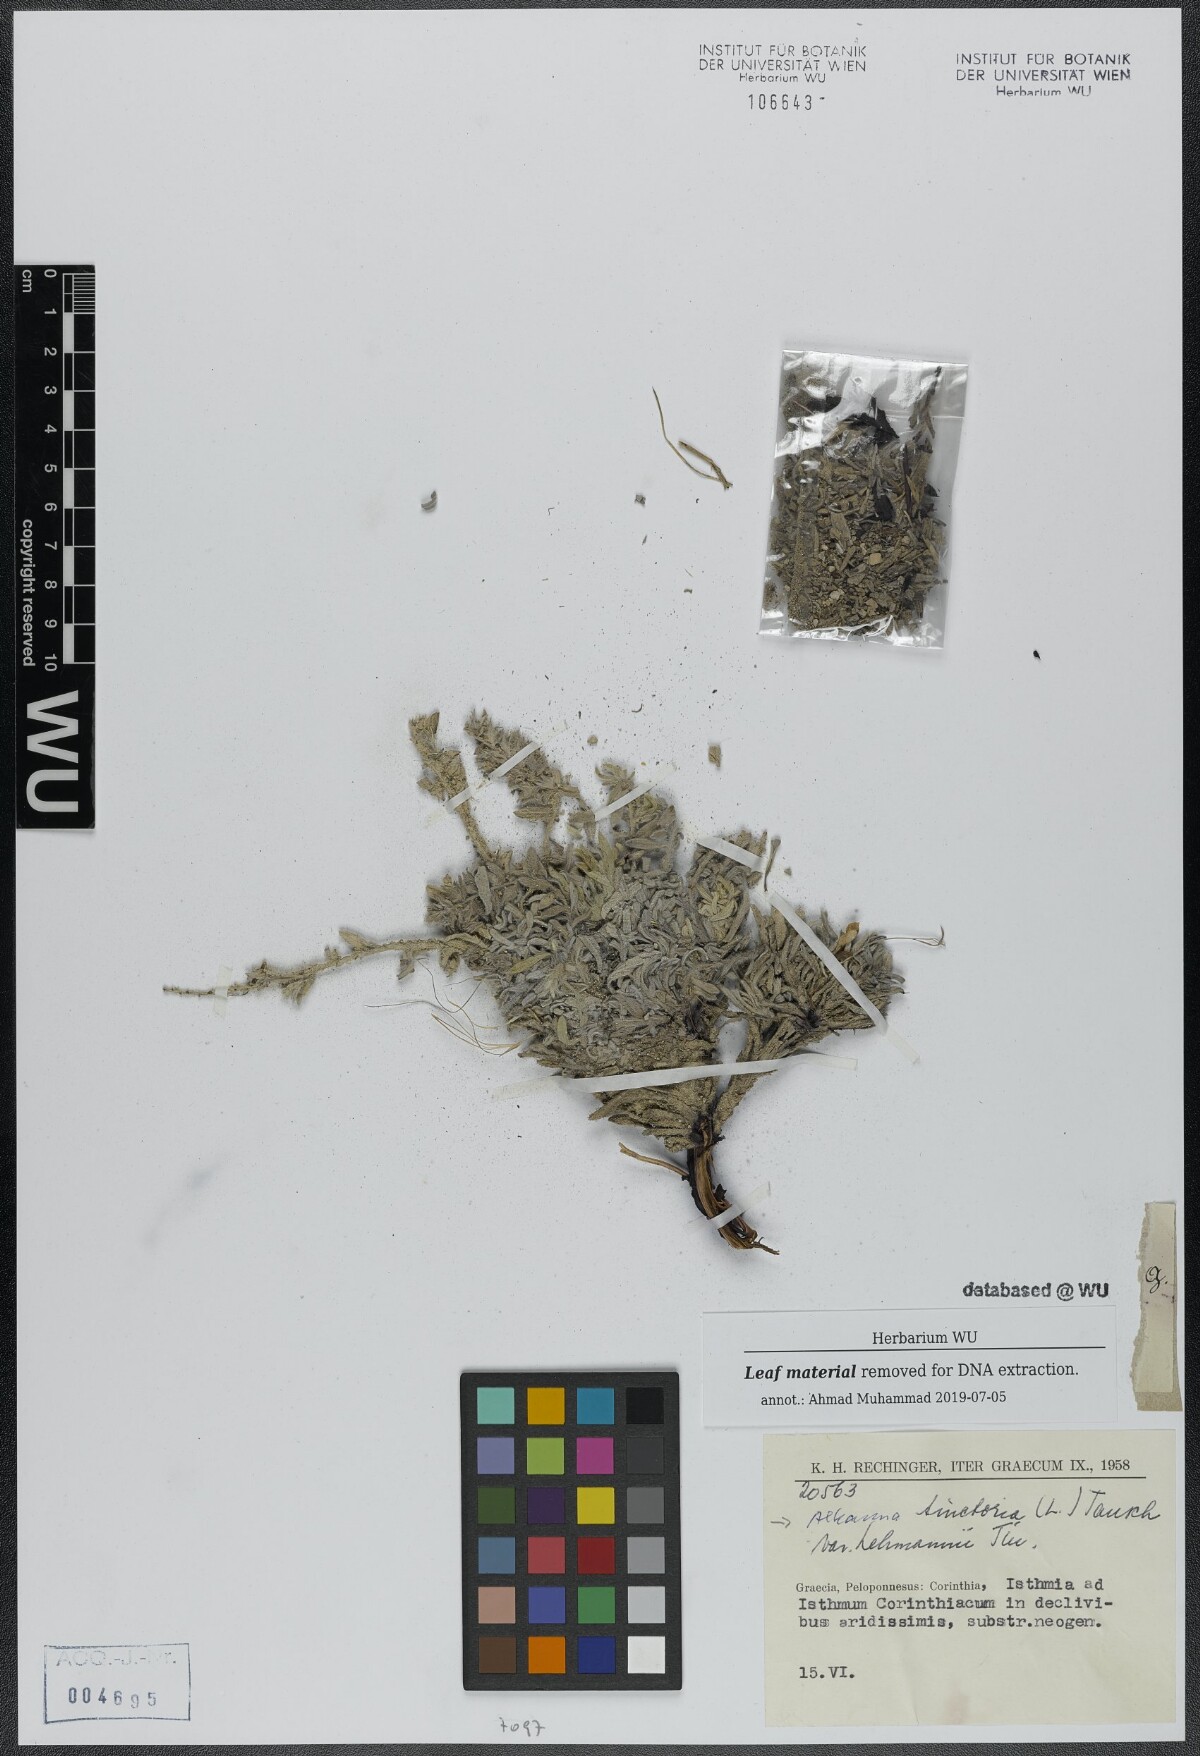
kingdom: Plantae
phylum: Tracheophyta
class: Magnoliopsida
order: Boraginales
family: Boraginaceae
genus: Alkanna
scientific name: Alkanna tinctoria
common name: Dyer's-alkanet
